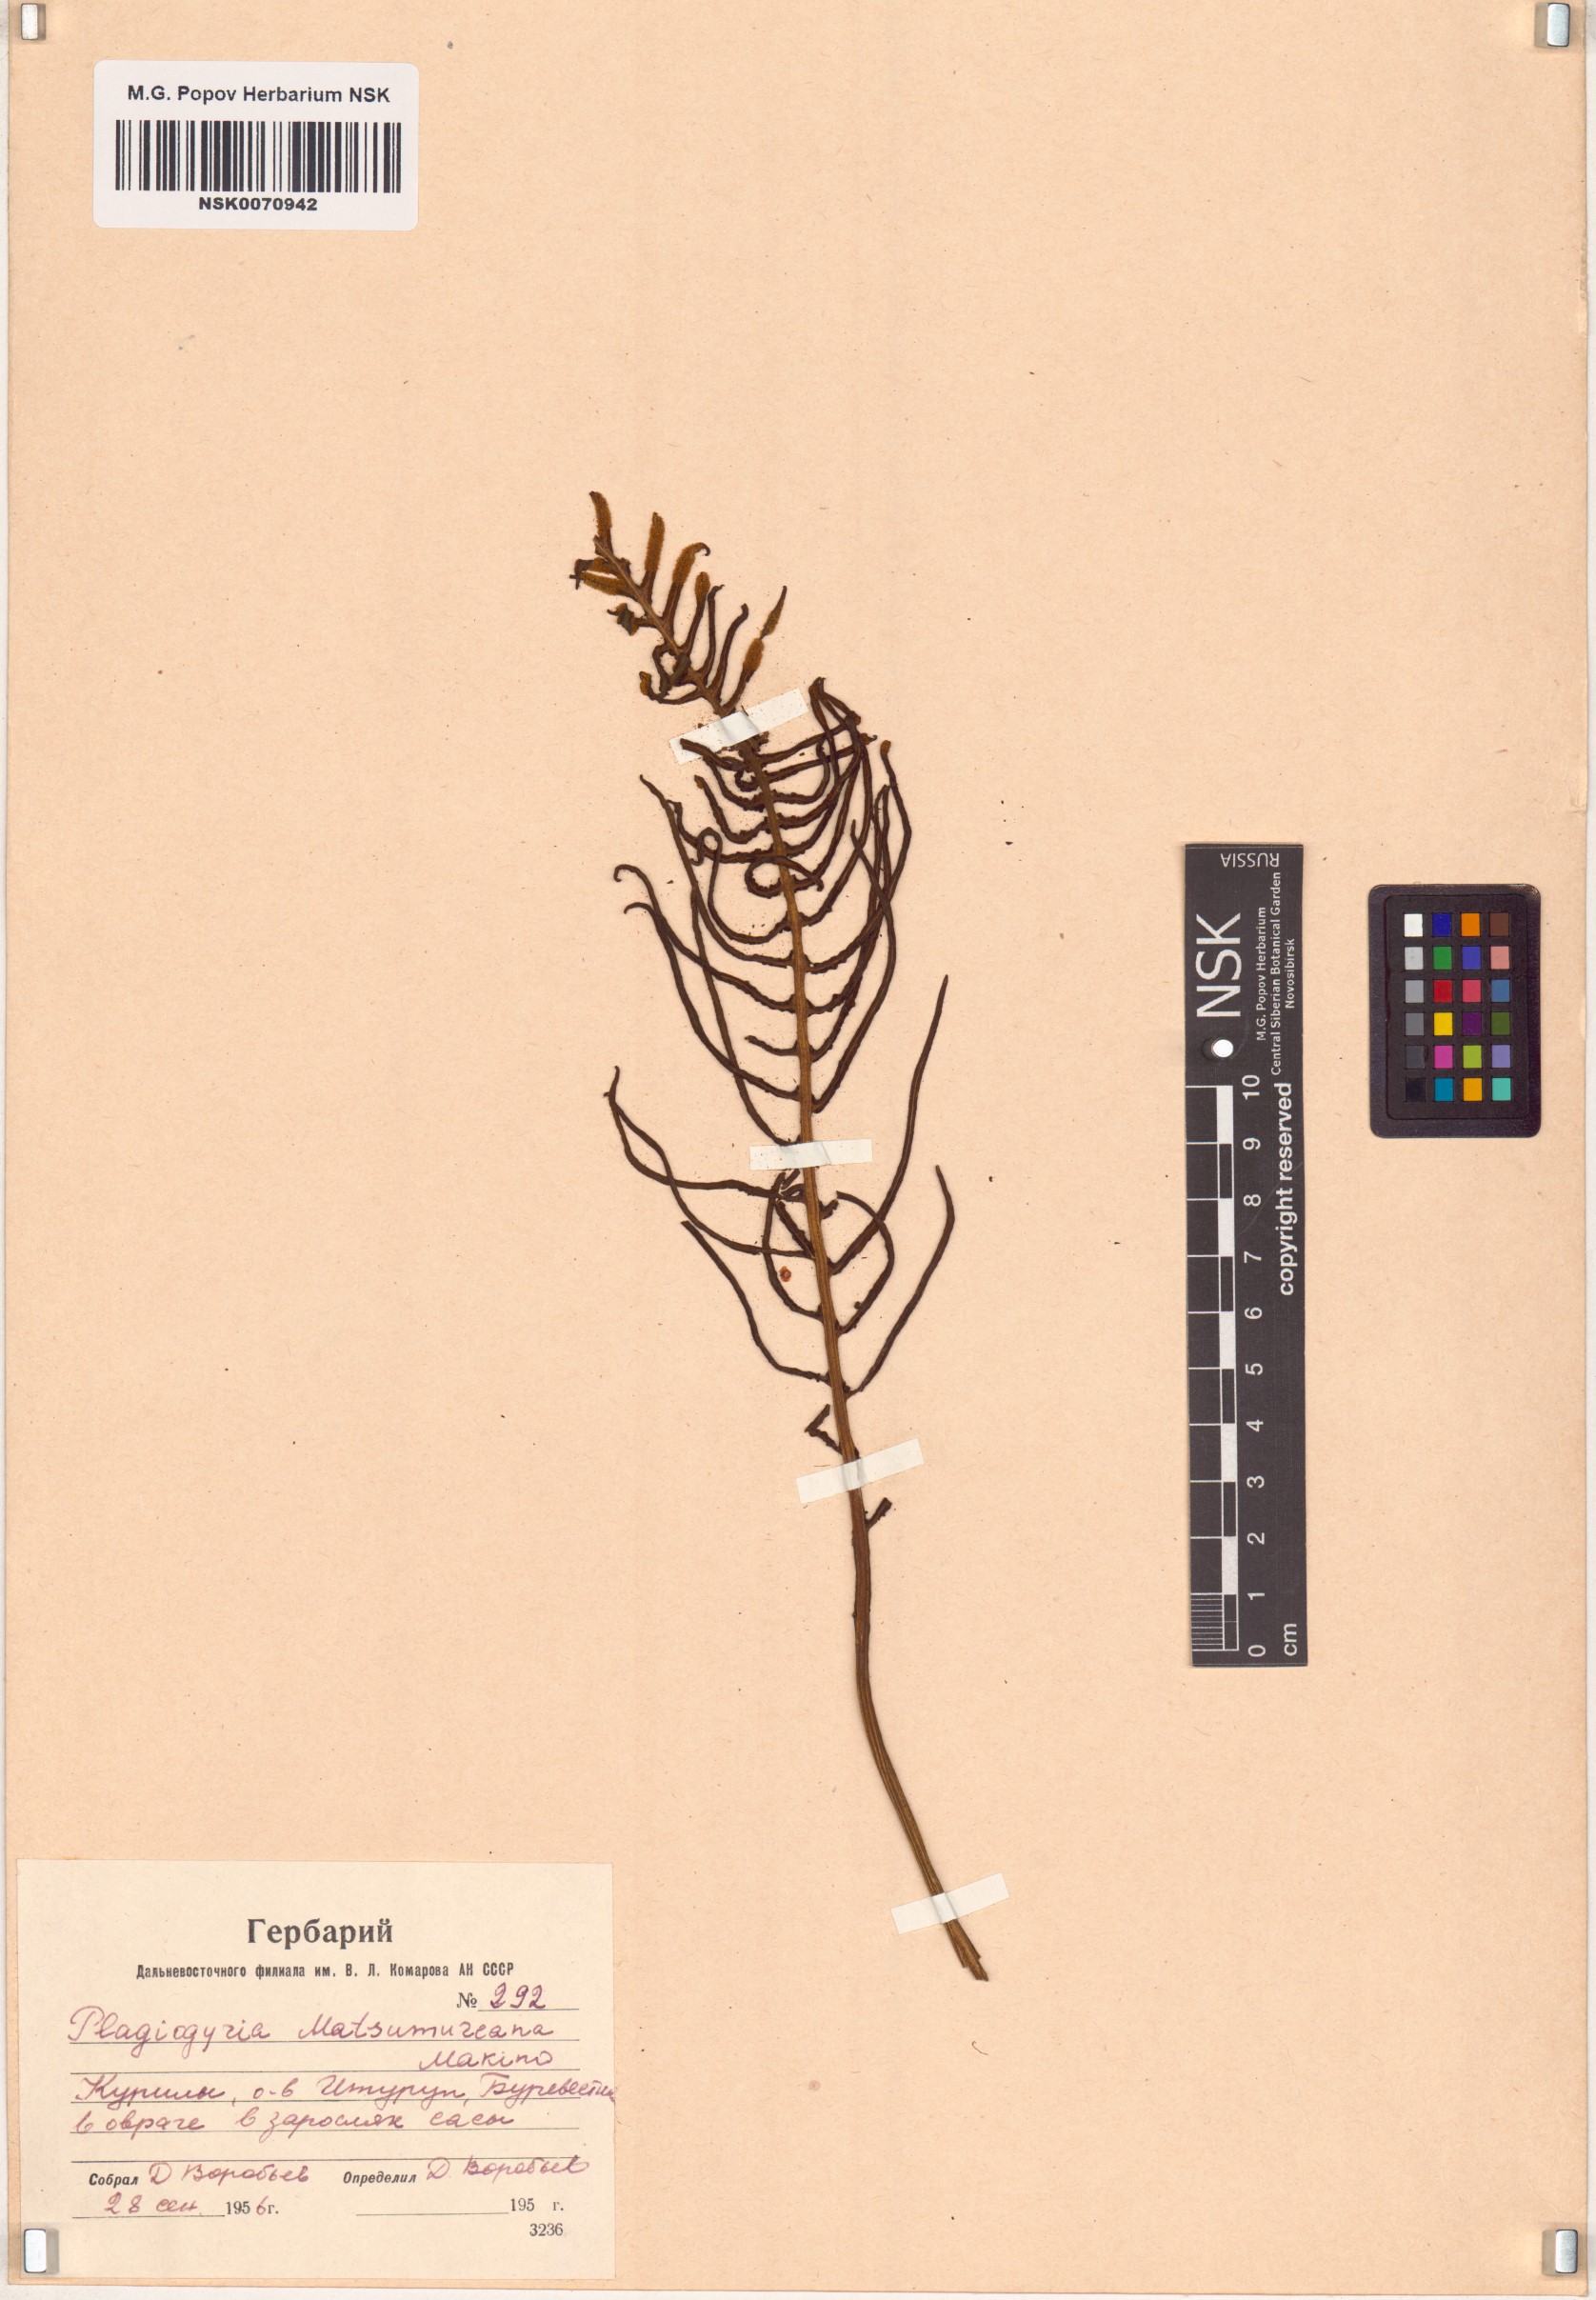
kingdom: Plantae
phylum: Tracheophyta
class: Polypodiopsida
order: Cyatheales
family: Plagiogyriaceae
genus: Plagiogyria
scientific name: Plagiogyria matsumureana
